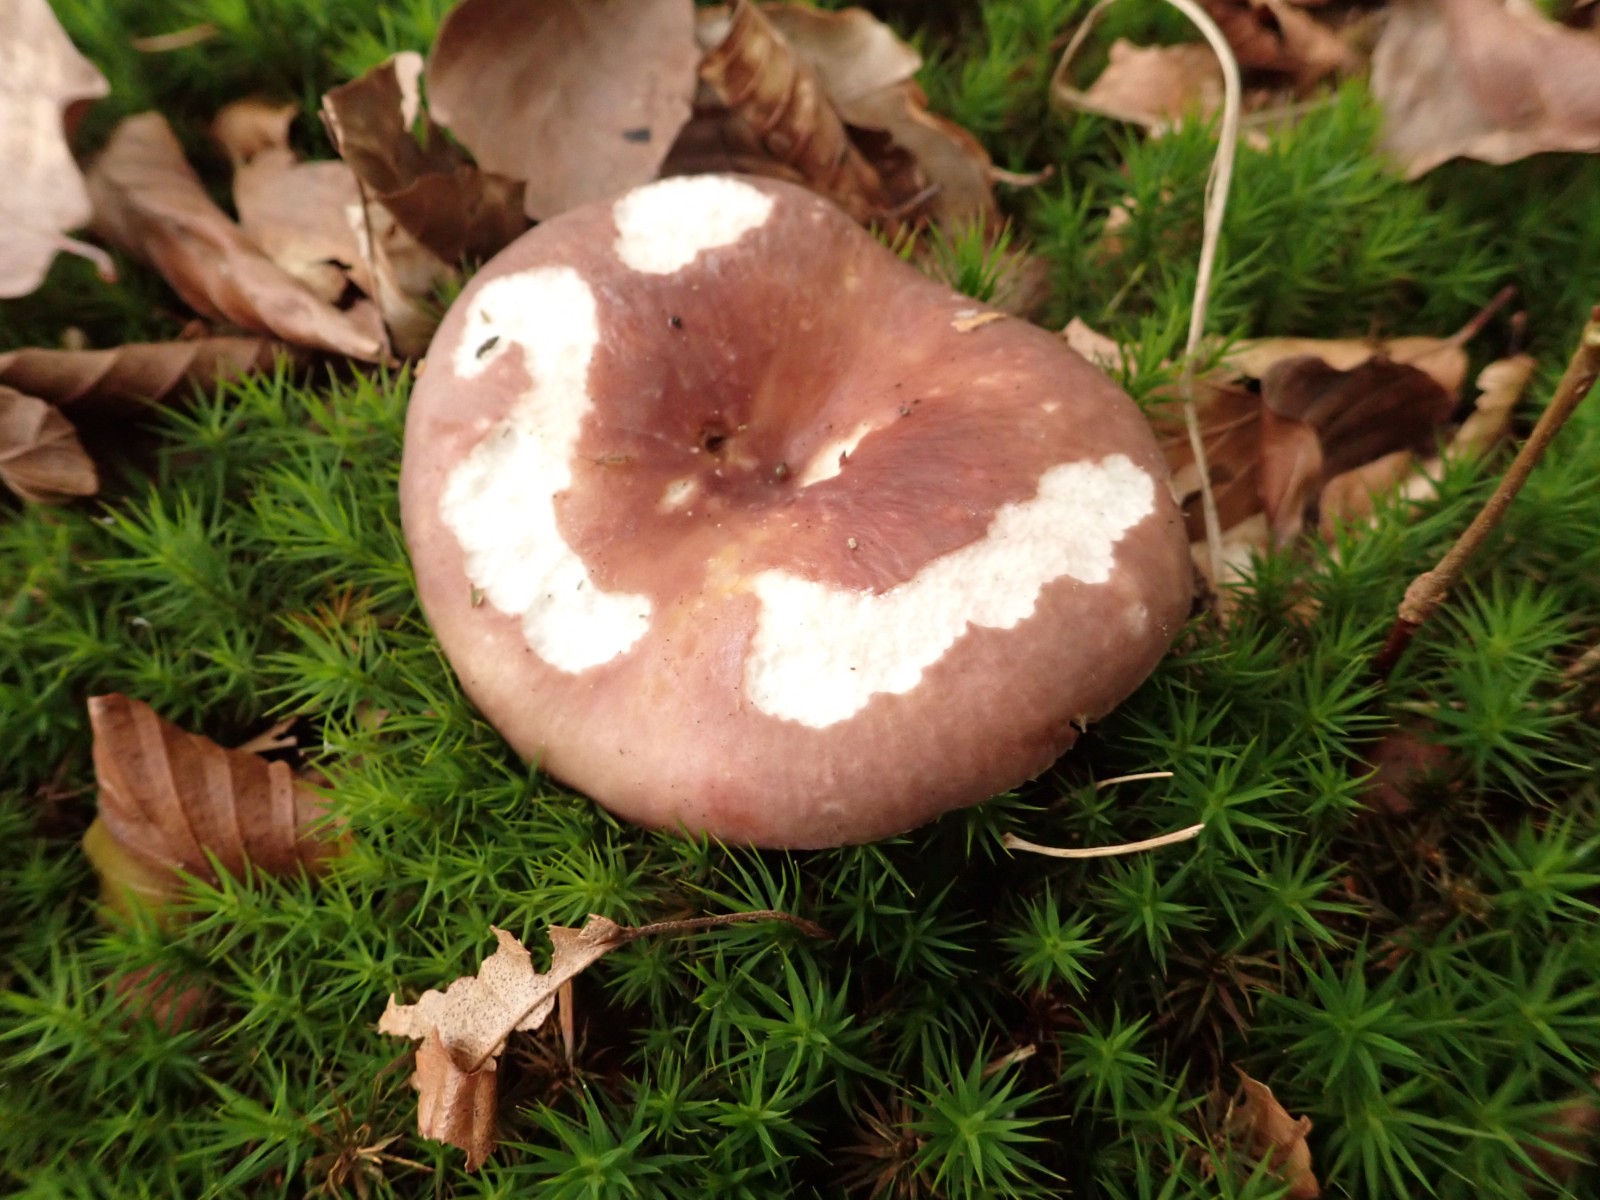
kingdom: Fungi
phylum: Basidiomycota
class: Agaricomycetes
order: Russulales
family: Russulaceae
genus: Russula
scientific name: Russula vesca
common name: spiselig skørhat
